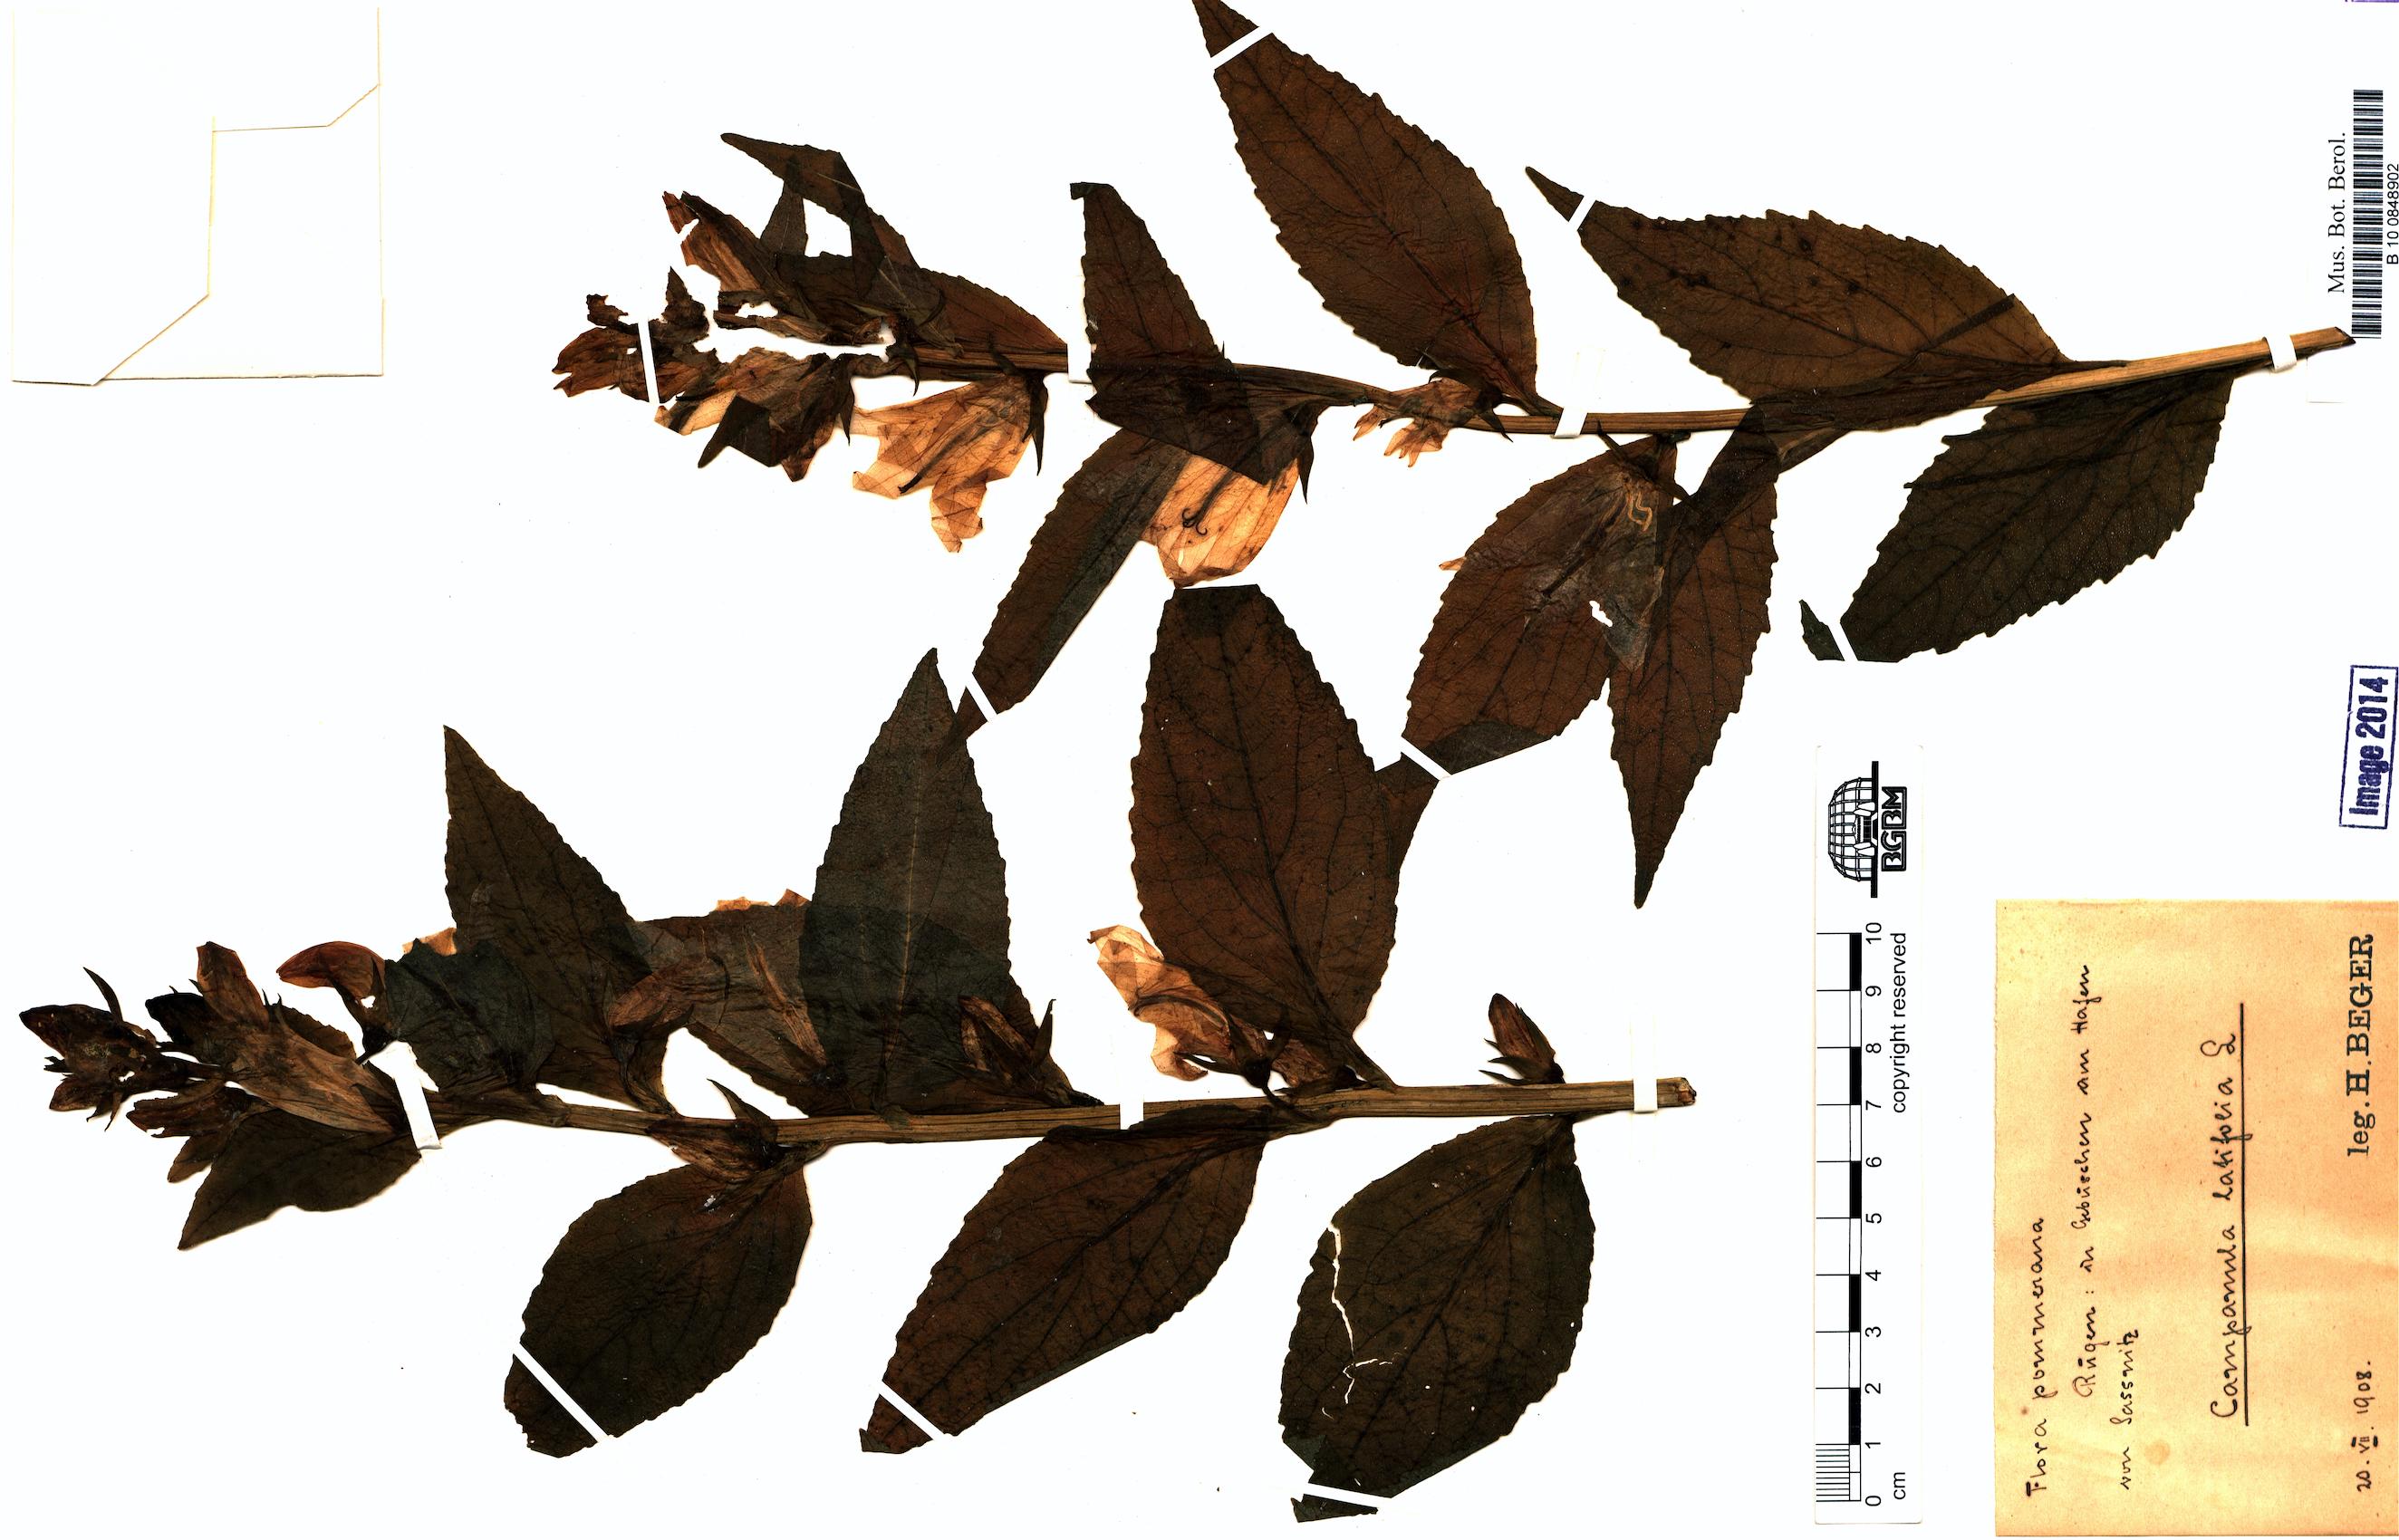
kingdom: Plantae
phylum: Tracheophyta
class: Magnoliopsida
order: Asterales
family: Campanulaceae
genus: Campanula
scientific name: Campanula latifolia
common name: Giant bellflower
